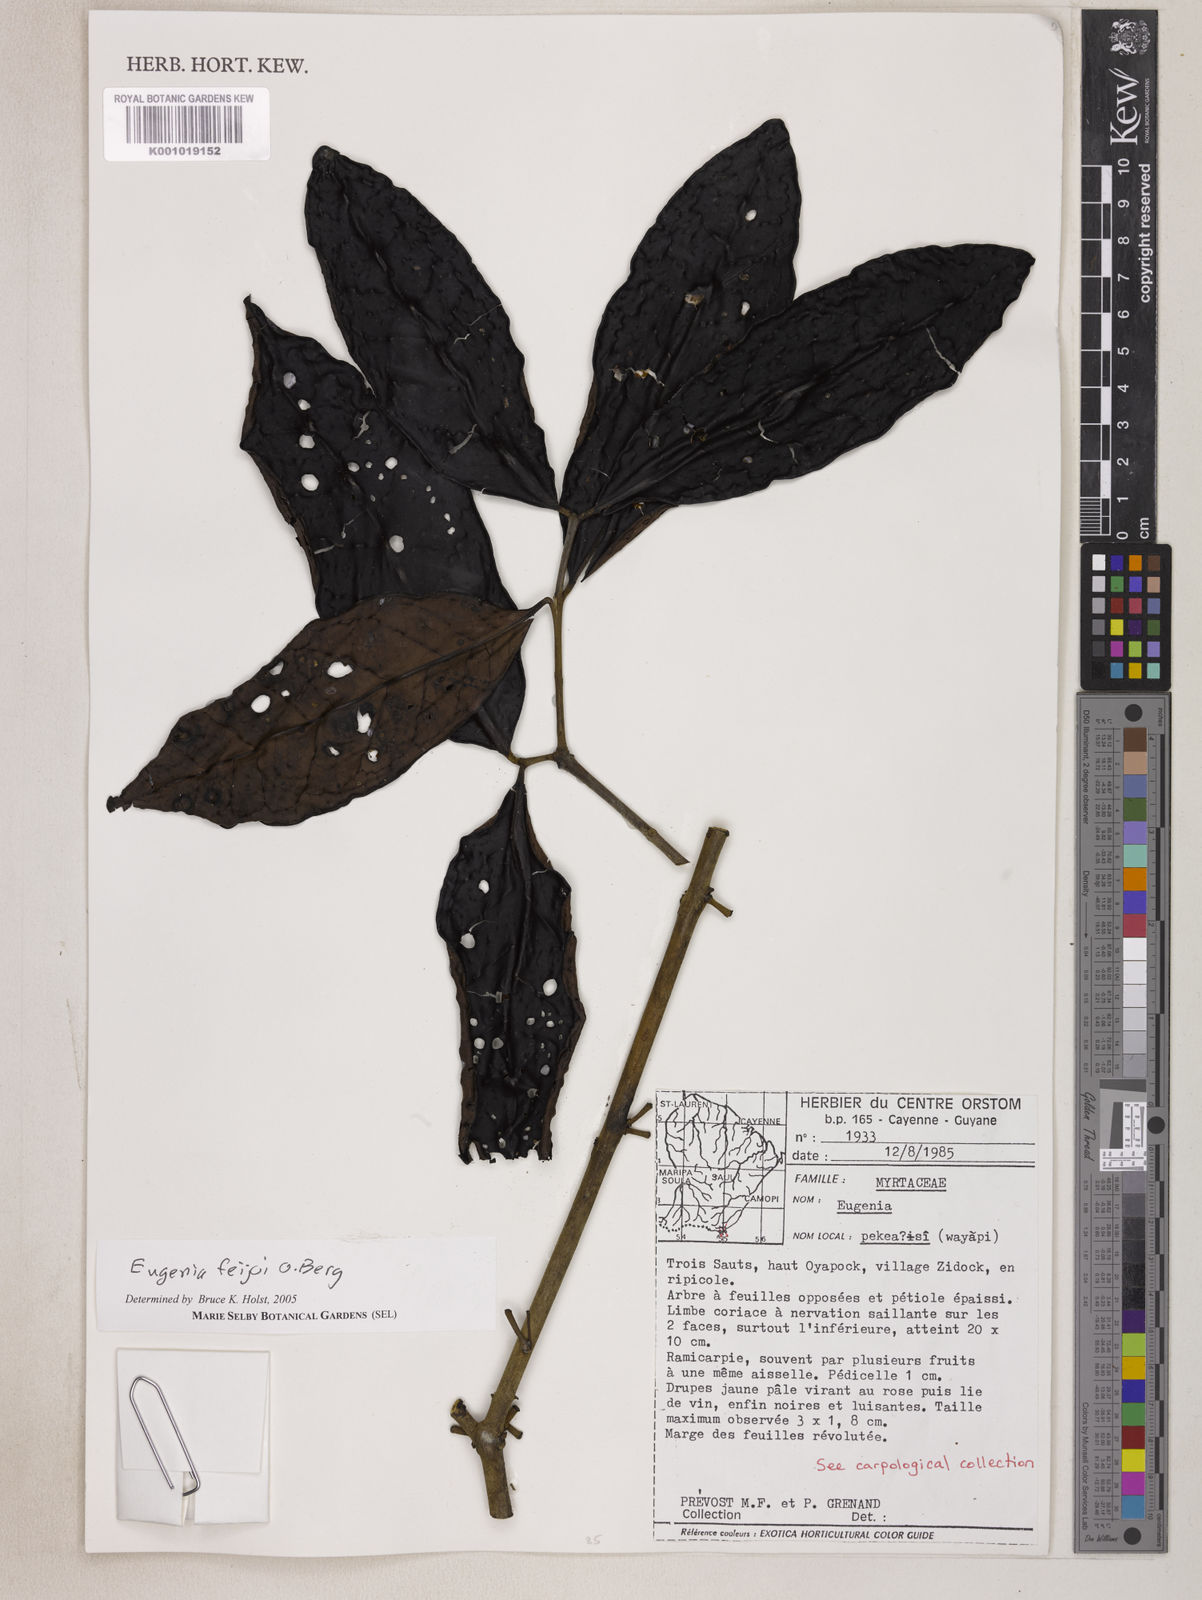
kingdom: Plantae
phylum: Tracheophyta
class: Magnoliopsida
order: Myrtales
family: Myrtaceae
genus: Eugenia
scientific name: Eugenia moschata
